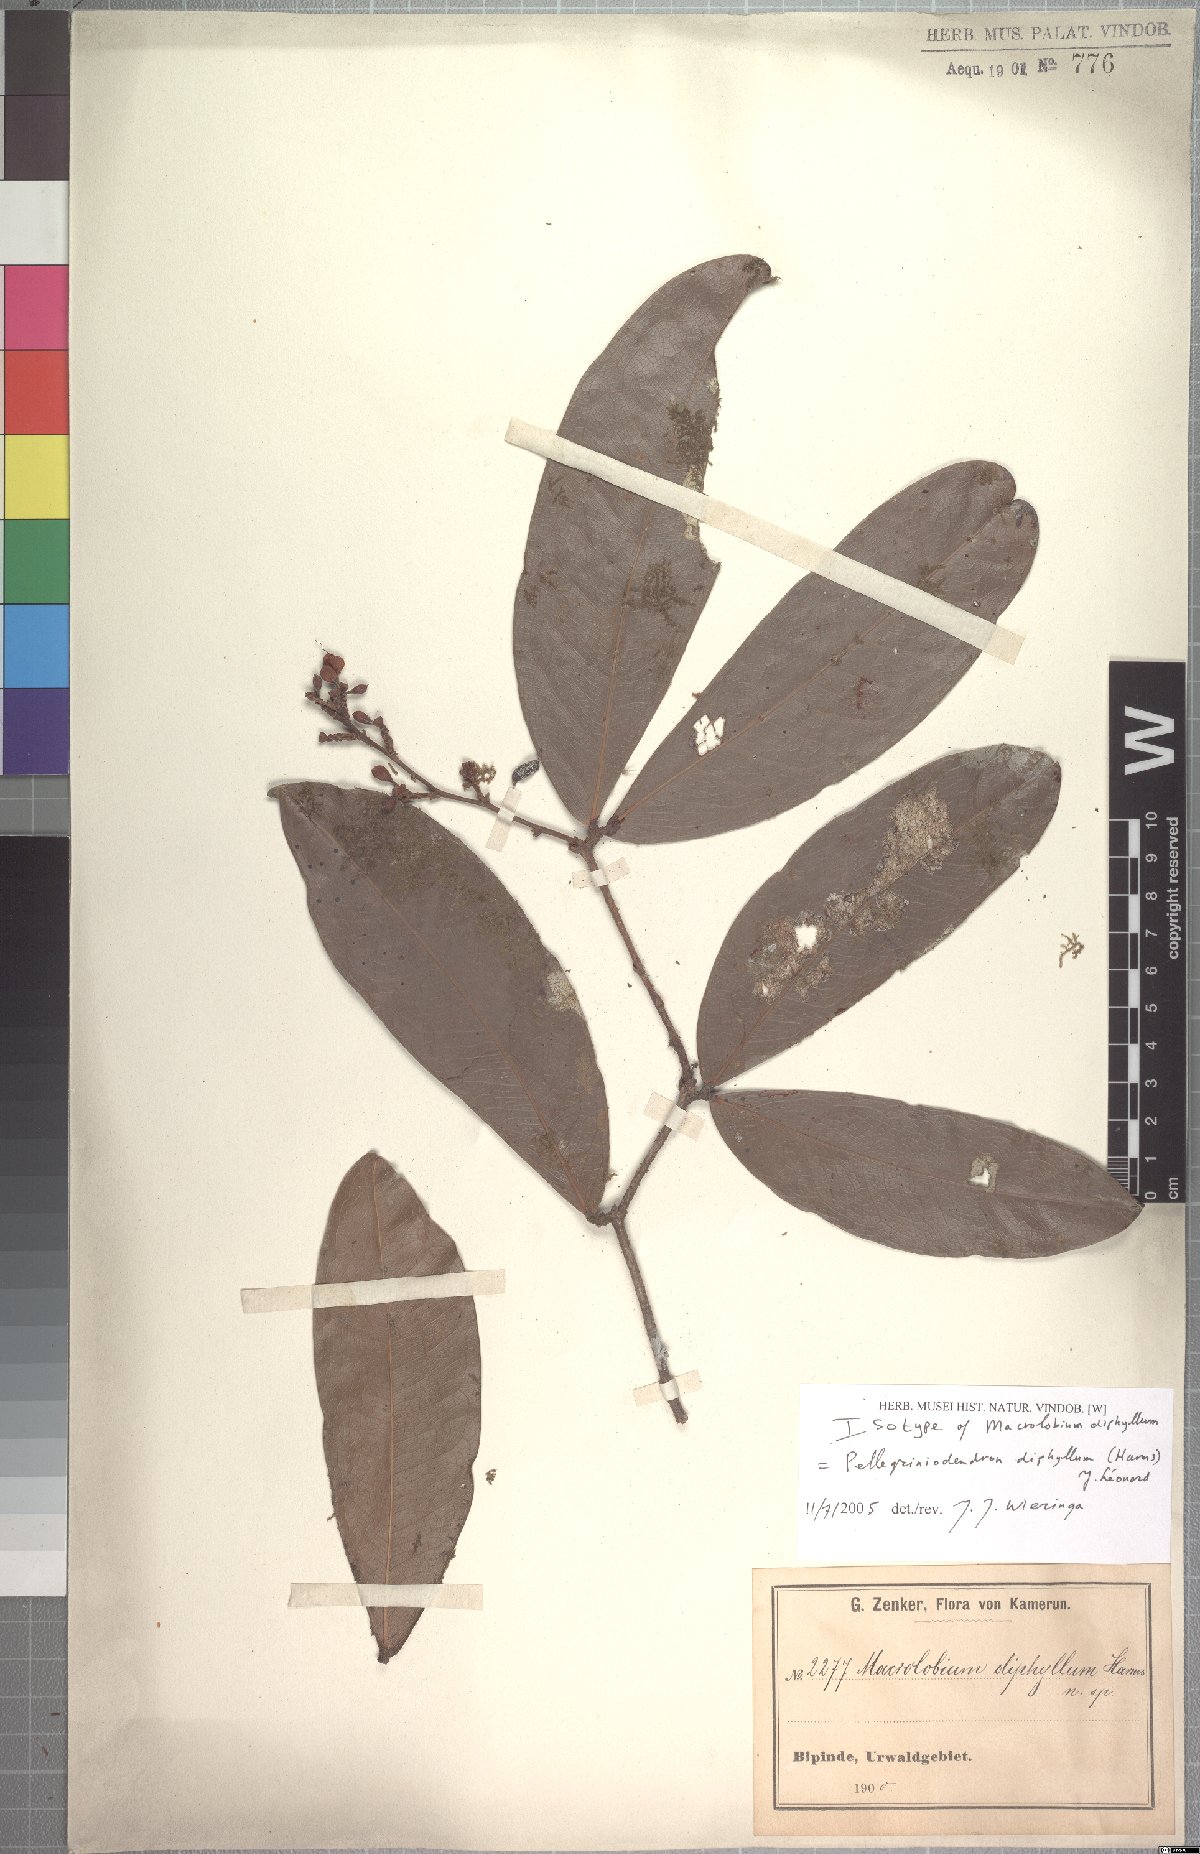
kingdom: Plantae
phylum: Tracheophyta
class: Magnoliopsida
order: Fabales
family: Fabaceae
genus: Gilbertiodendron
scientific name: Gilbertiodendron diphyllum
